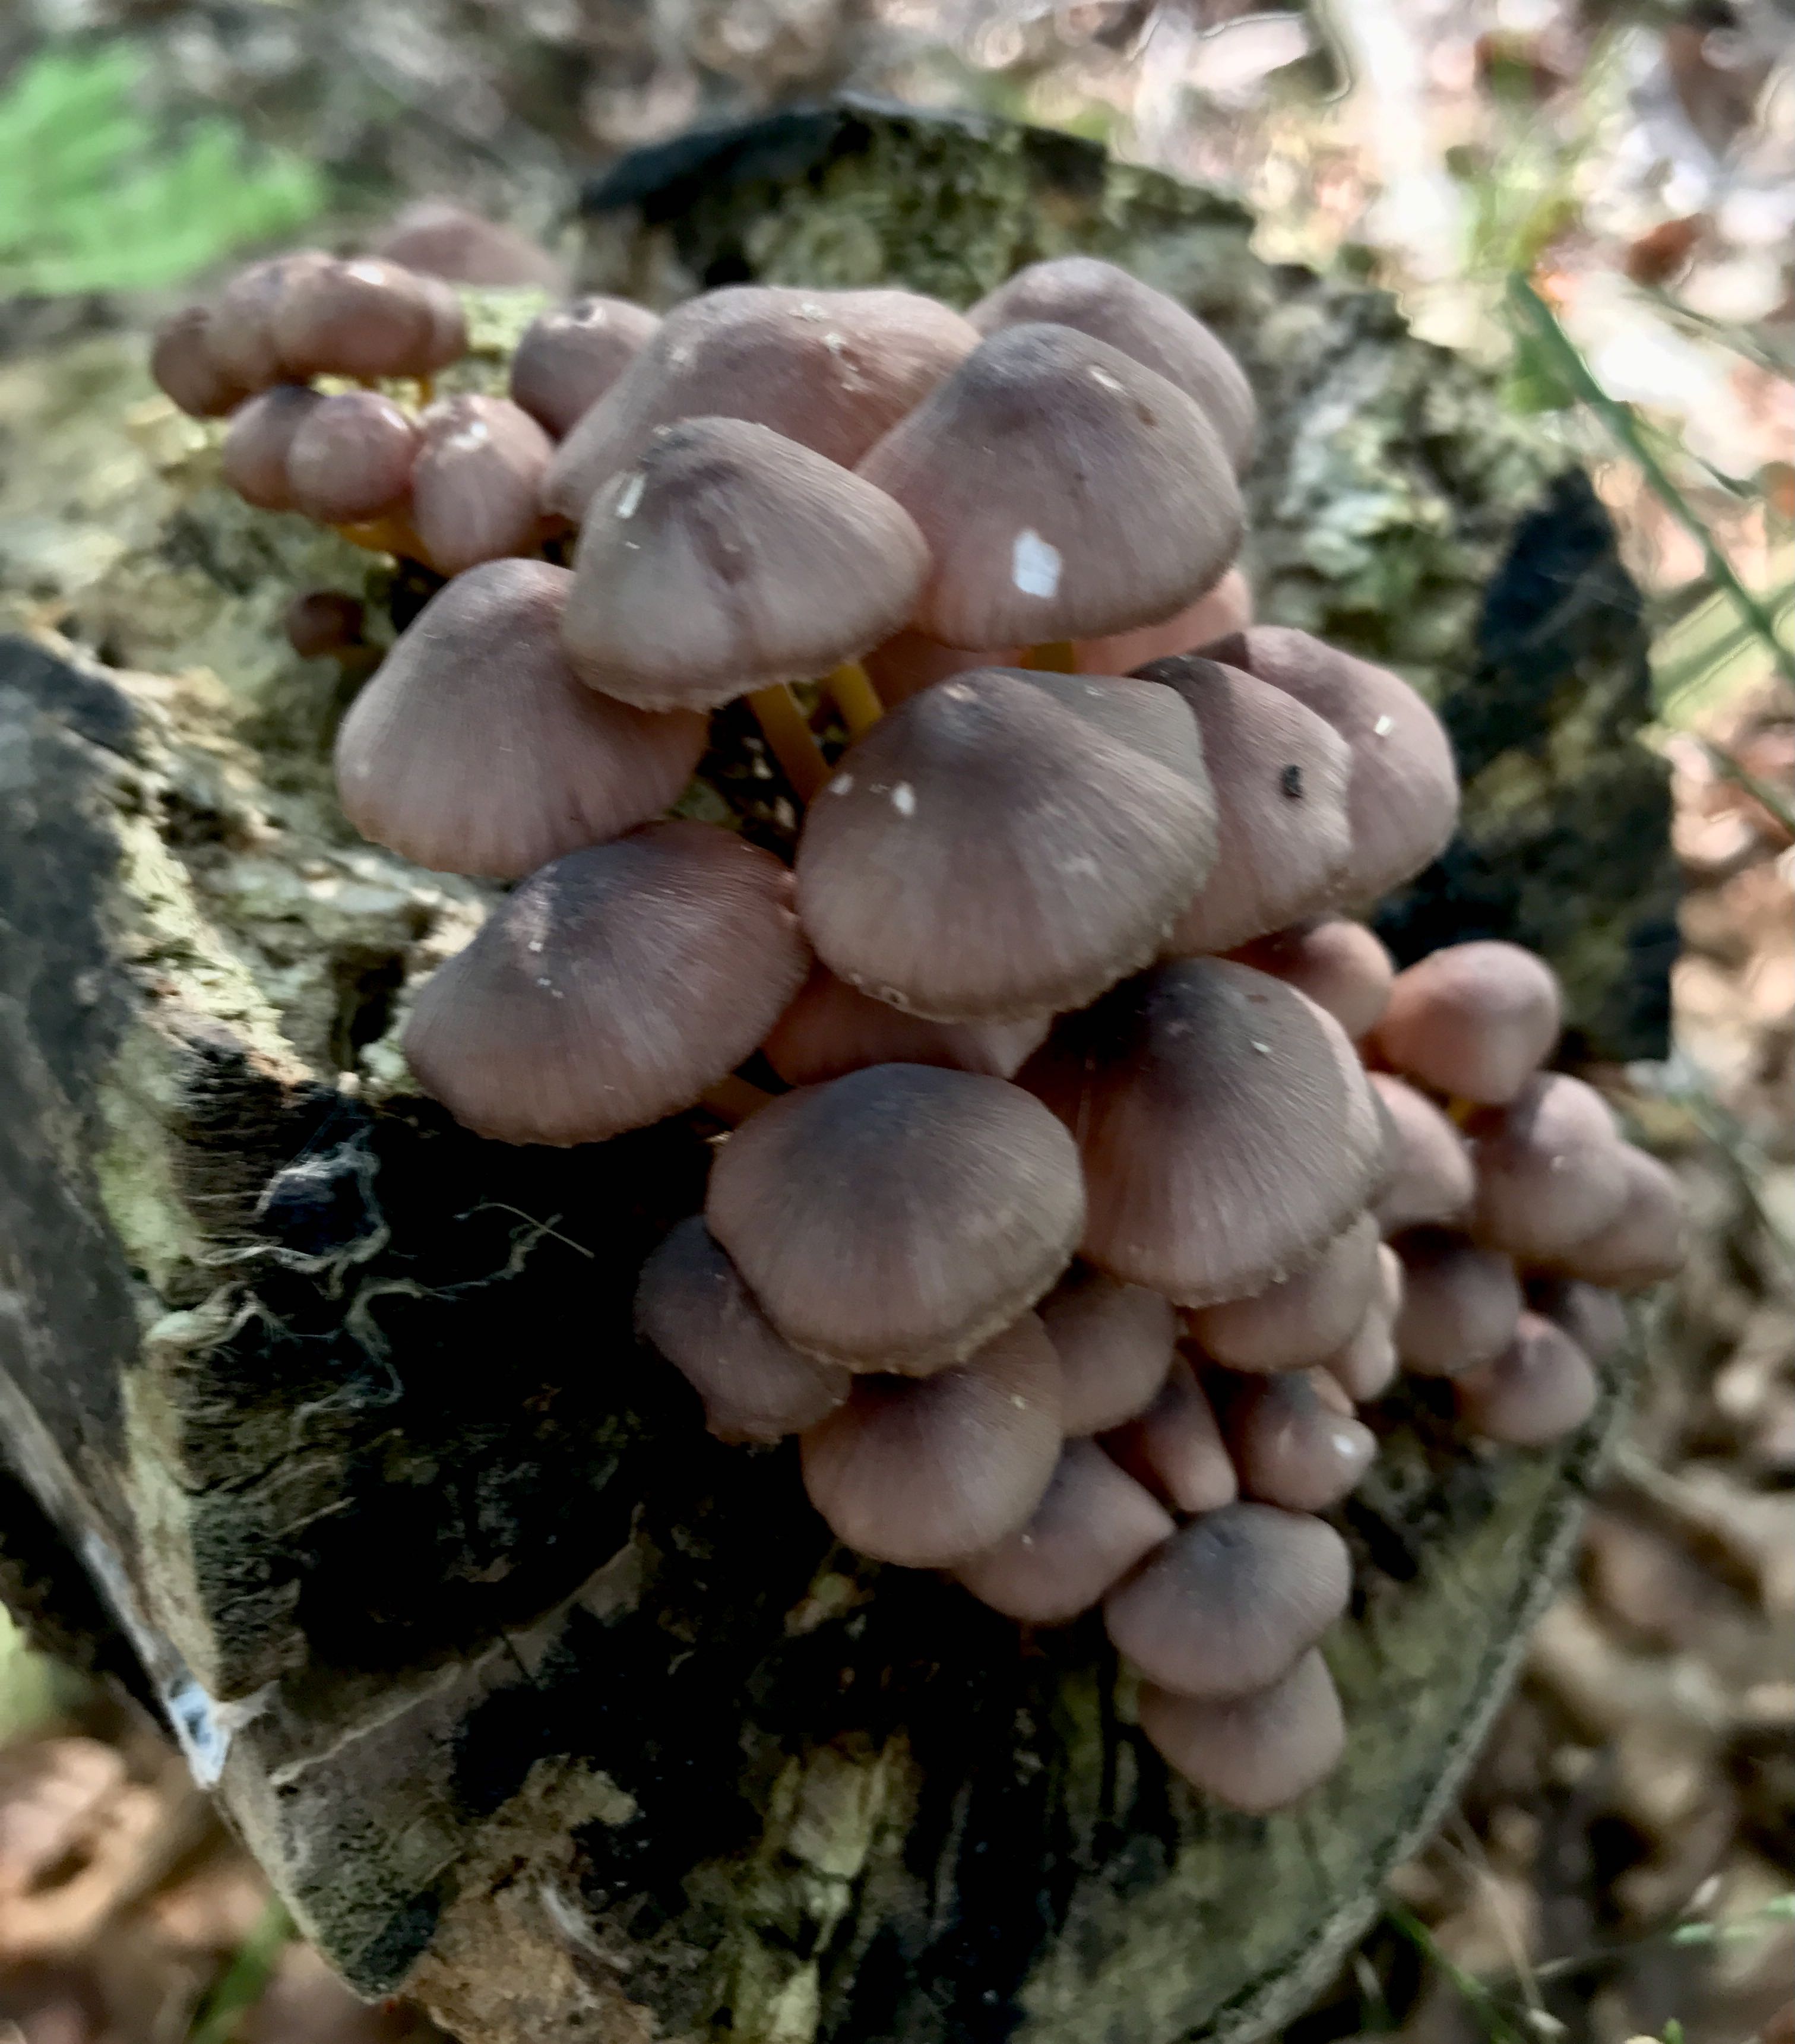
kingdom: Fungi
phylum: Basidiomycota
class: Agaricomycetes
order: Agaricales
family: Mycenaceae
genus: Mycena
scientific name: Mycena renati
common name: smuk huesvamp
